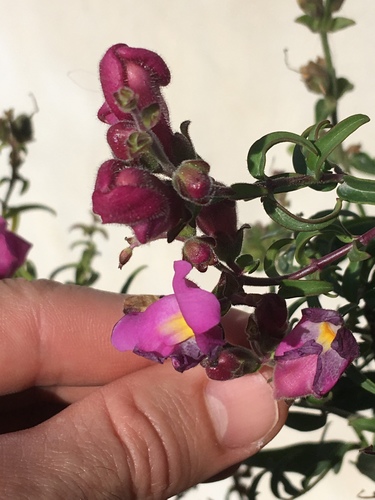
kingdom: Plantae
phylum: Tracheophyta
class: Magnoliopsida
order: Lamiales
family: Plantaginaceae
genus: Antirrhinum
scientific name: Antirrhinum majus
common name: Snapdragon
